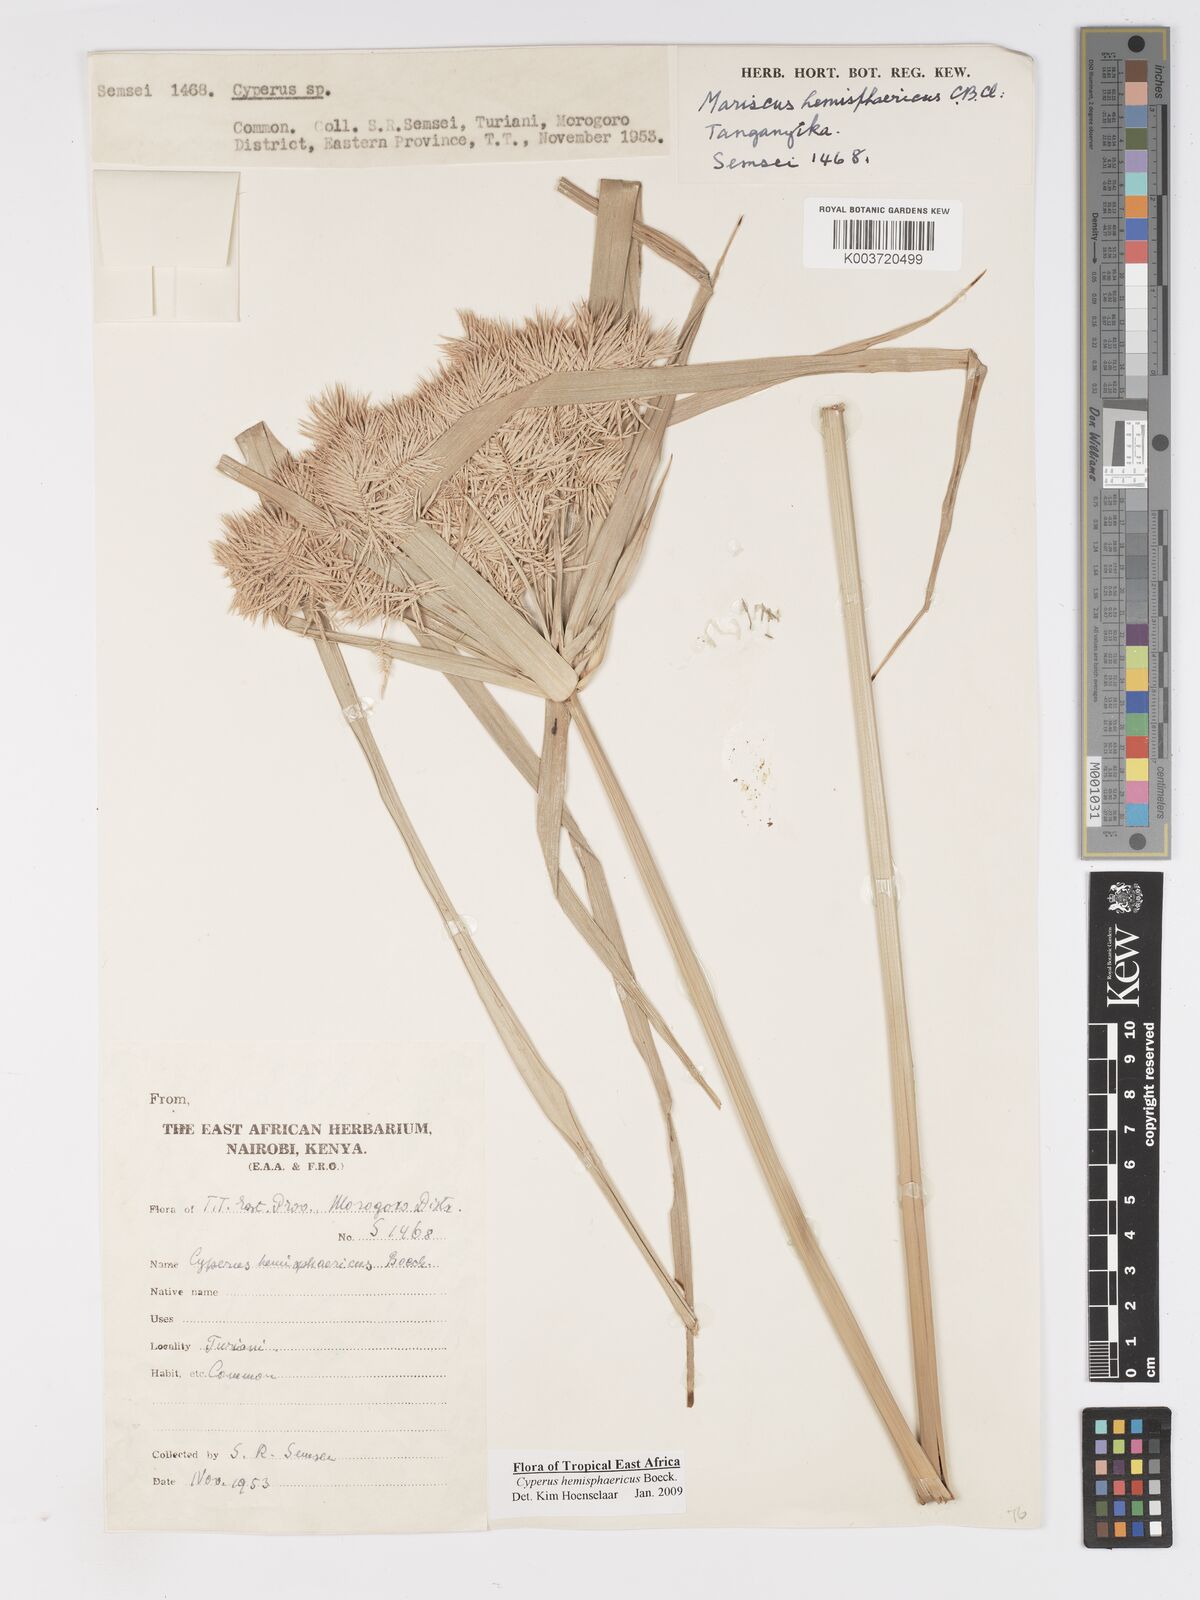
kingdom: Plantae
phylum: Tracheophyta
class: Liliopsida
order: Poales
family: Cyperaceae
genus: Cyperus
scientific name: Cyperus hemisphaericus
